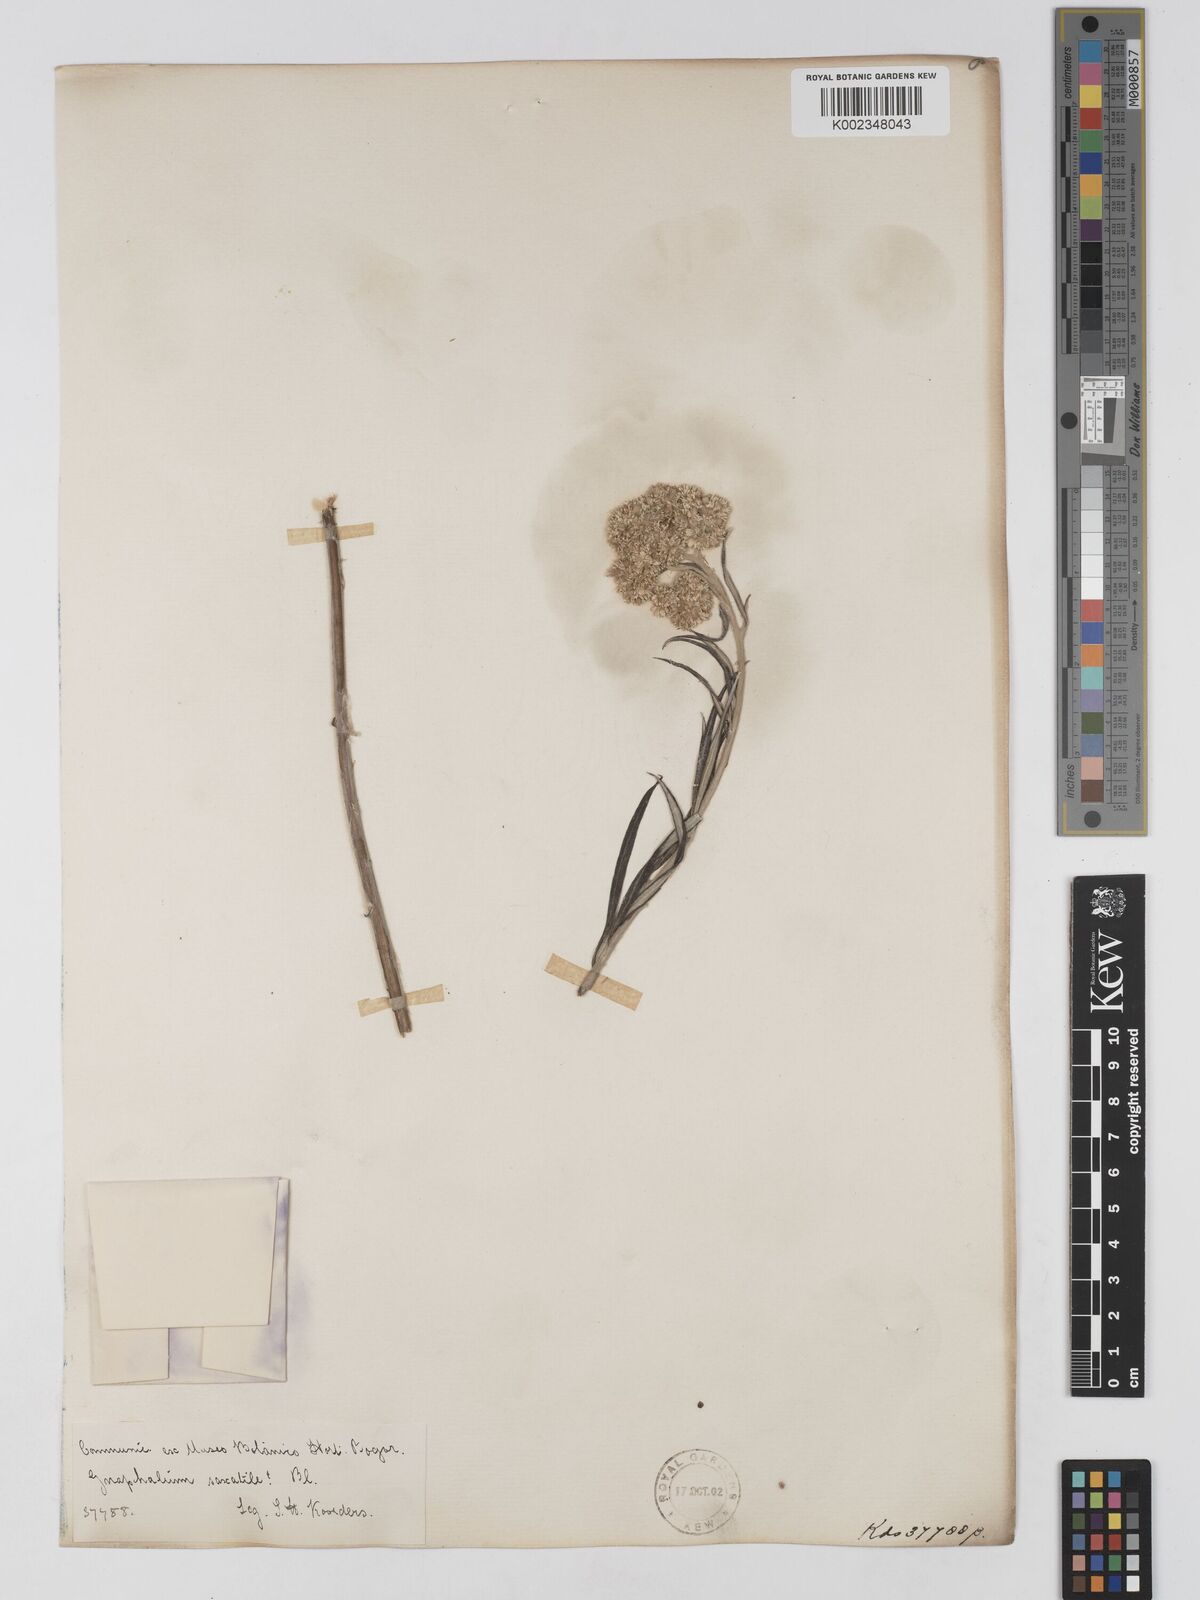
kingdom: Plantae
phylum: Tracheophyta
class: Magnoliopsida
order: Asterales
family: Asteraceae
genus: Anaphalis
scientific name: Anaphalis longifolia
